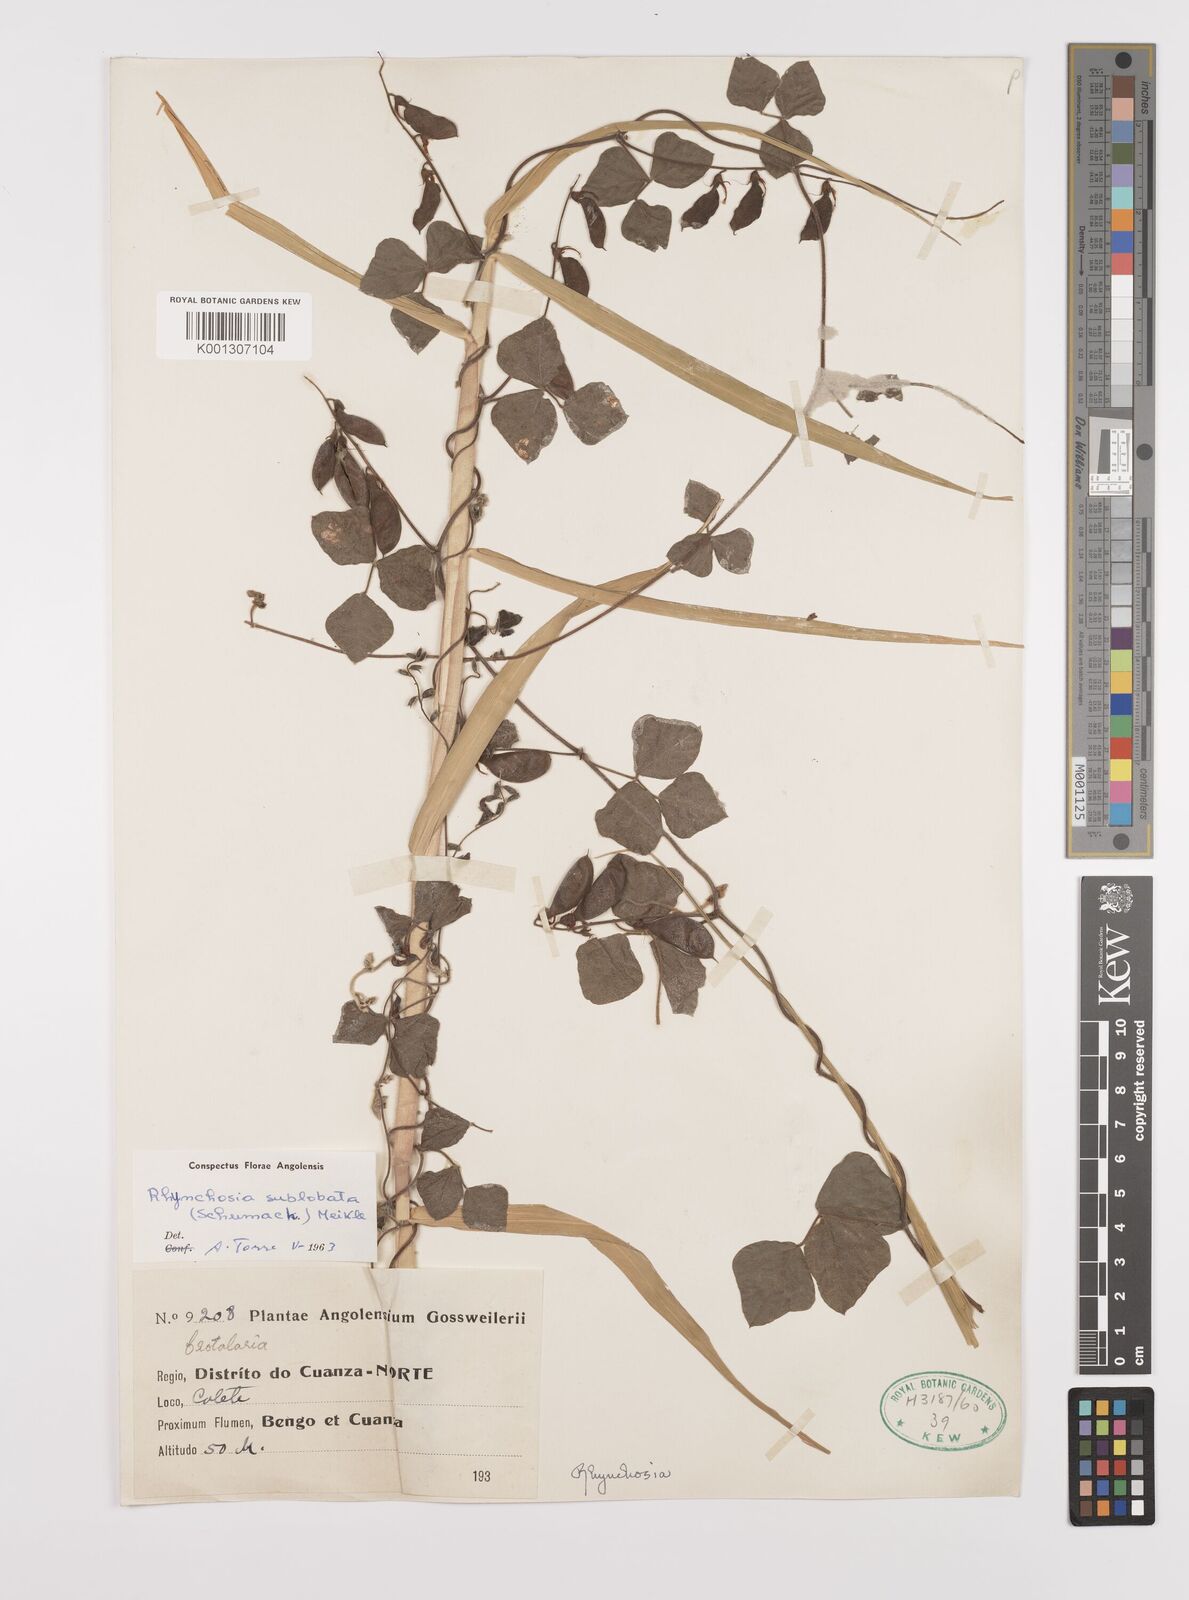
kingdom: Plantae
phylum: Tracheophyta
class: Magnoliopsida
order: Fabales
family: Fabaceae
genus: Rhynchosia
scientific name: Rhynchosia sublobata
